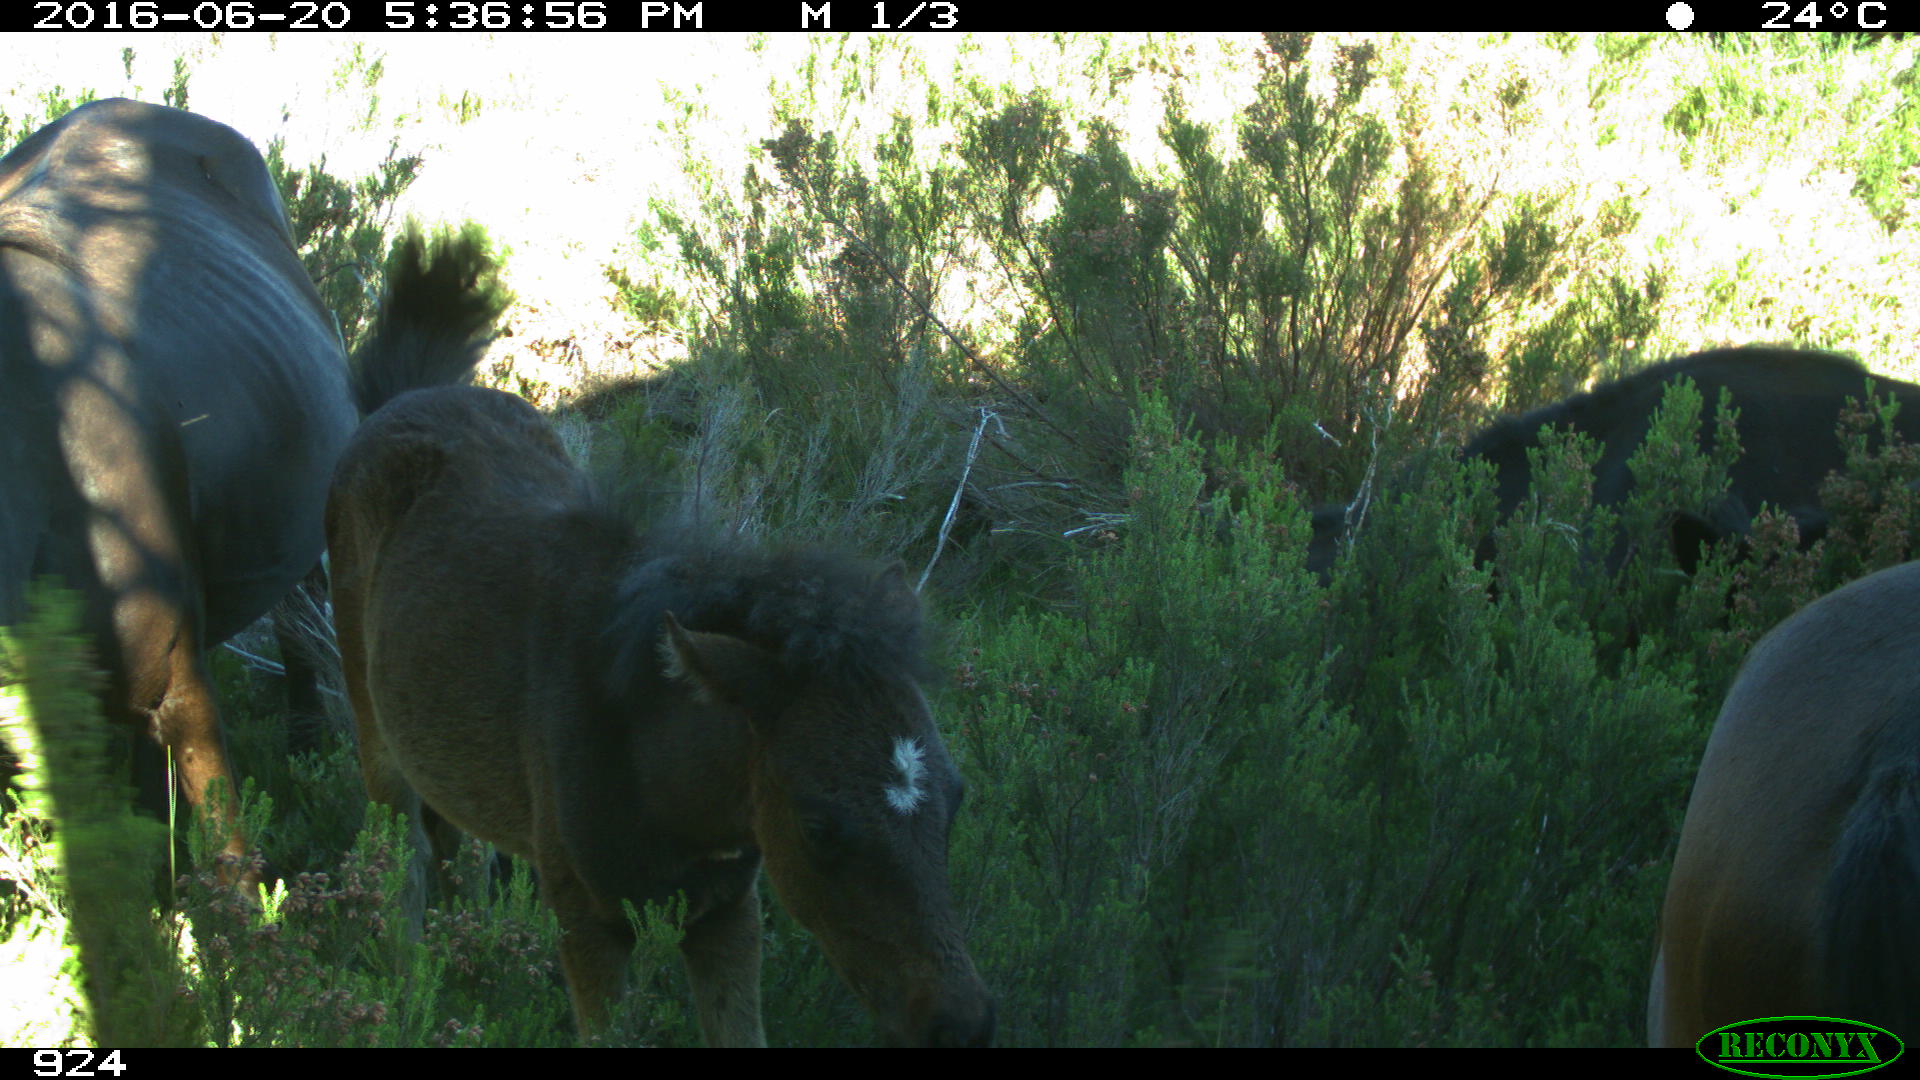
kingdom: Animalia
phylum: Chordata
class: Mammalia
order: Perissodactyla
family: Equidae
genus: Equus
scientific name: Equus caballus
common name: Horse
